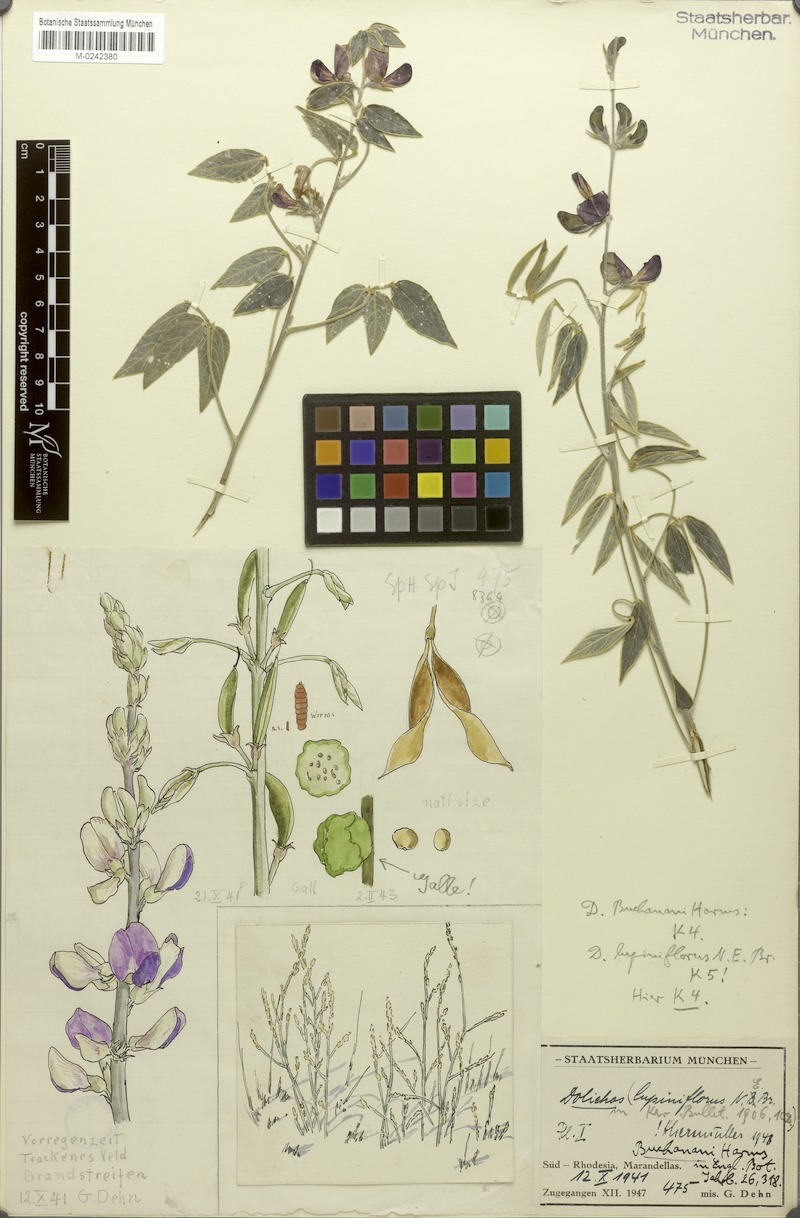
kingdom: Plantae
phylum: Tracheophyta
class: Magnoliopsida
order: Fabales
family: Fabaceae
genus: Dolichos
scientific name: Dolichos kilimandscharicus
